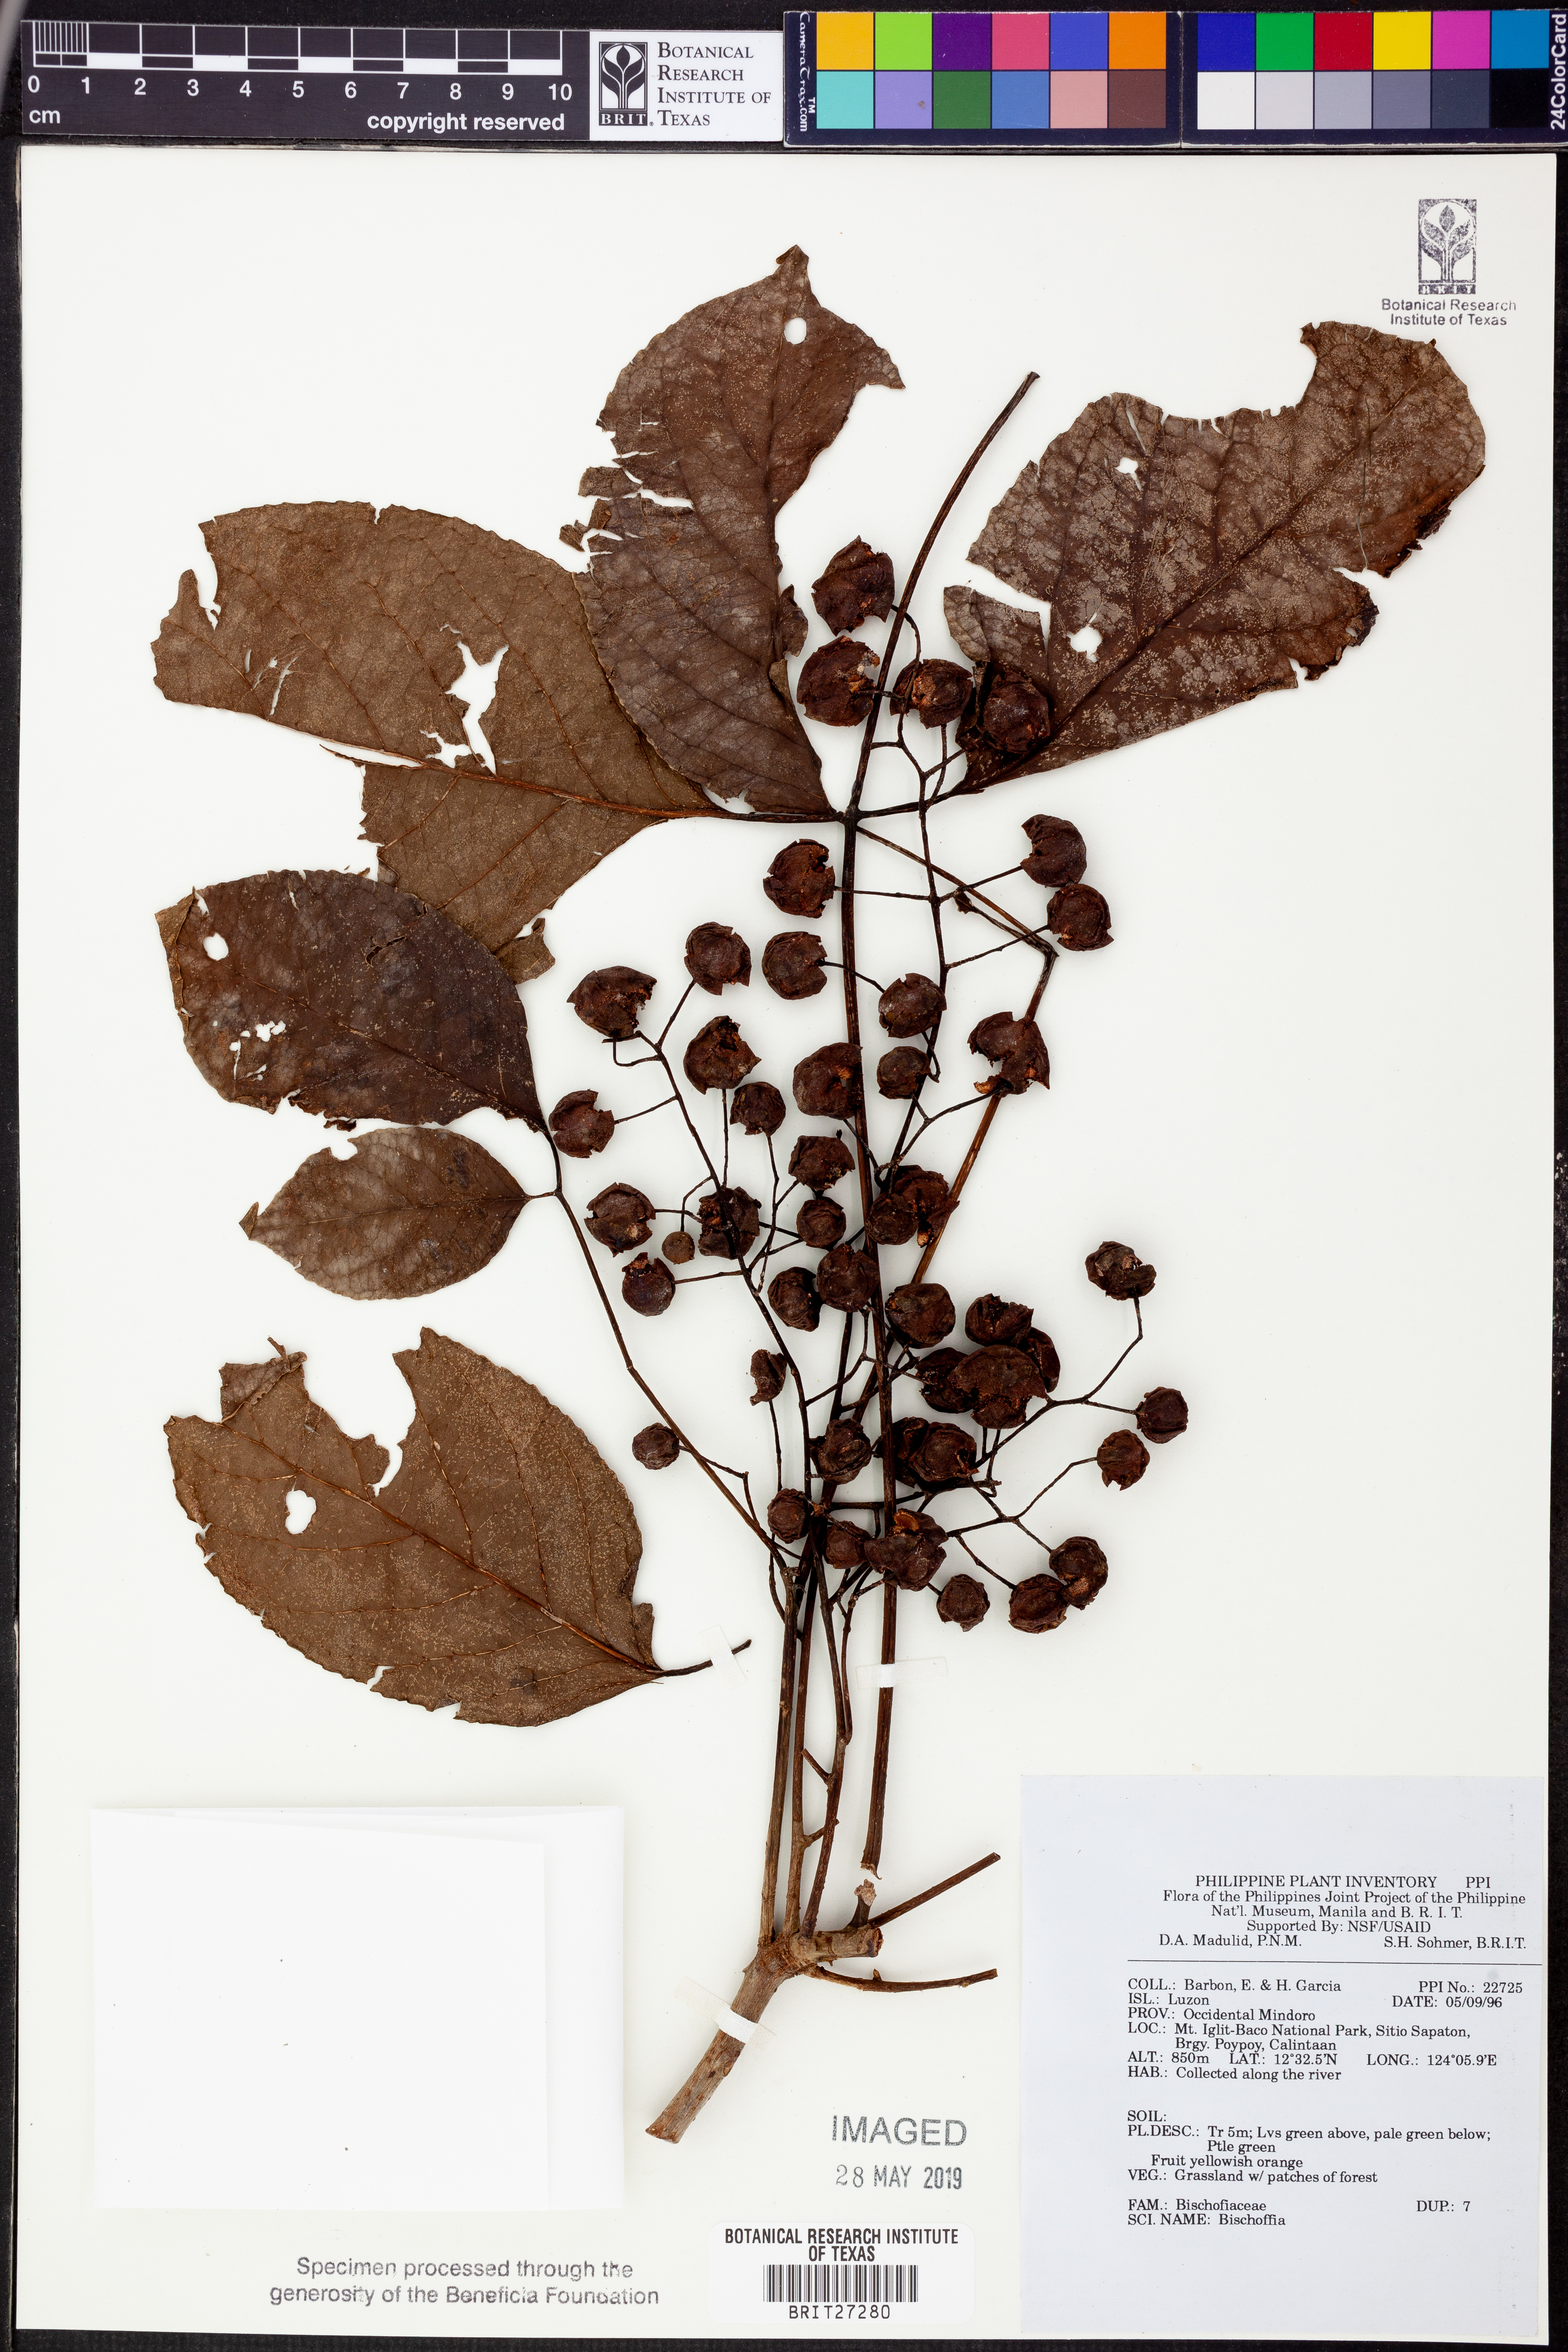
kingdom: Plantae
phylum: Tracheophyta
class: Magnoliopsida
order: Malpighiales
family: Phyllanthaceae
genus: Bischofia
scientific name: Bischofia
